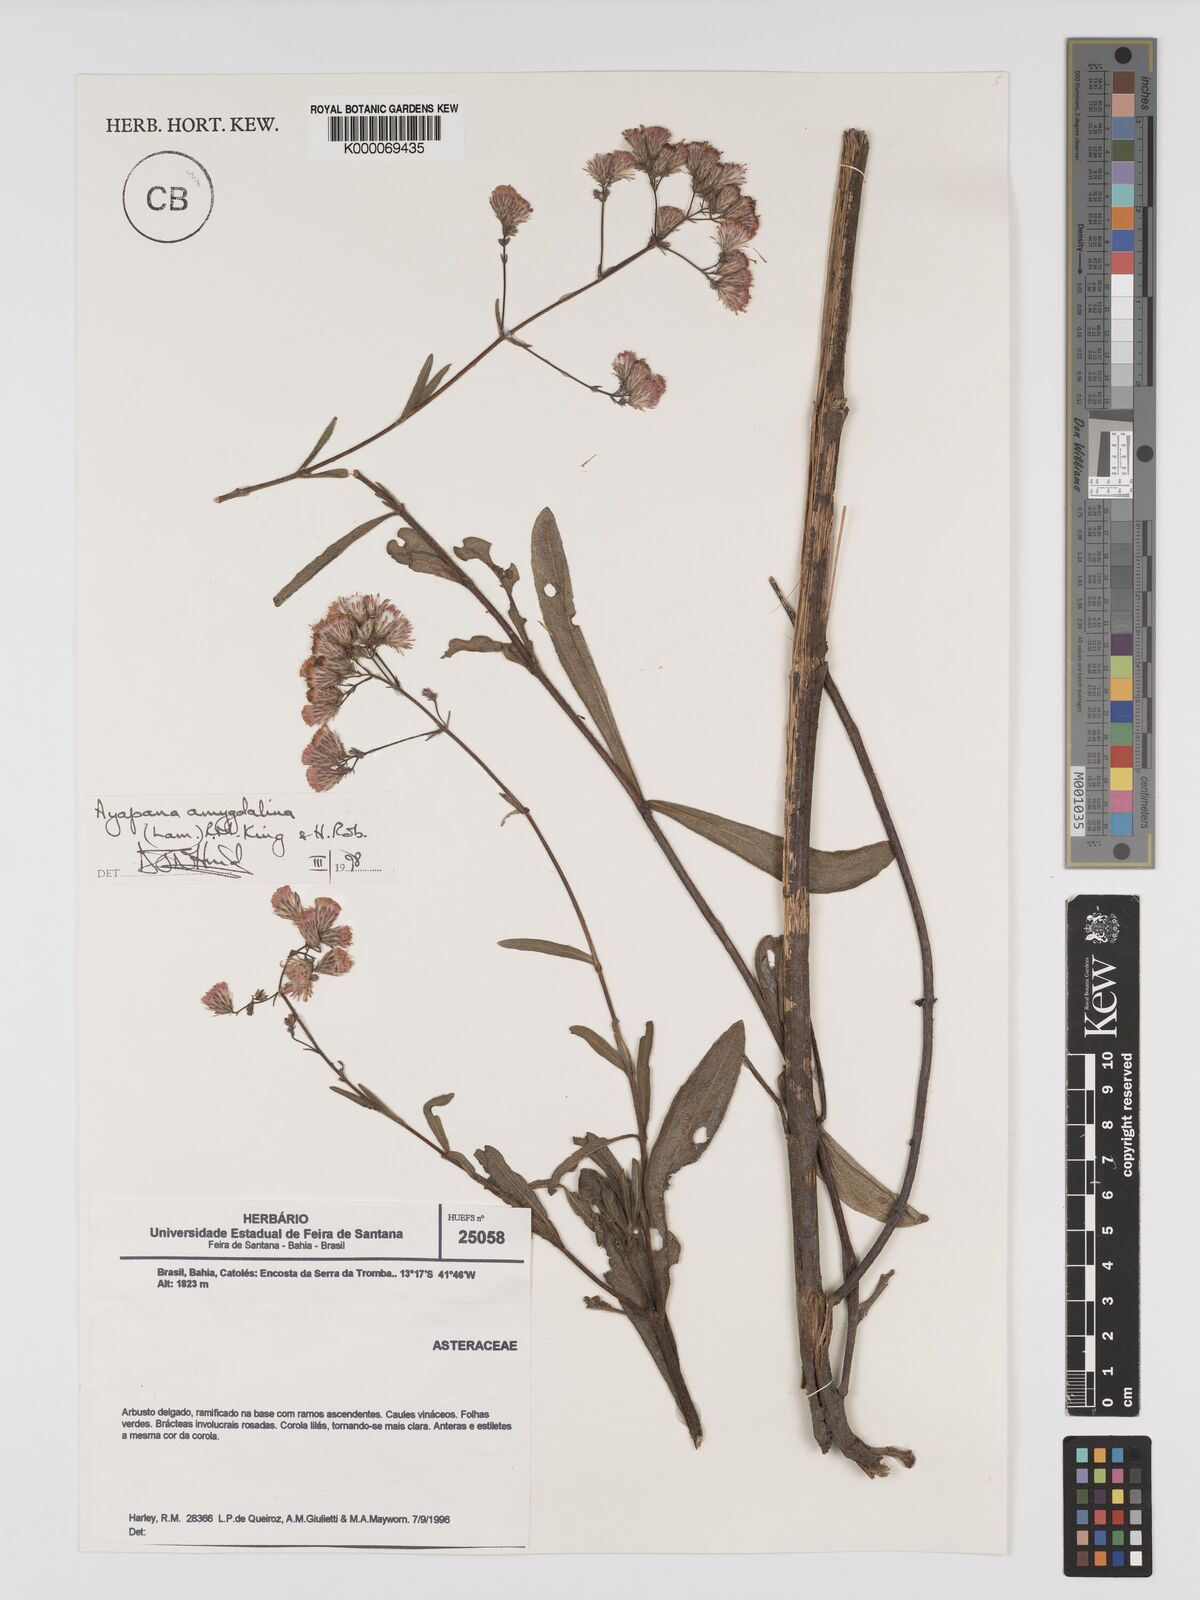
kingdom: Plantae
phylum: Tracheophyta
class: Magnoliopsida
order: Asterales
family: Asteraceae
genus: Ayapana
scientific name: Ayapana amygdalina
